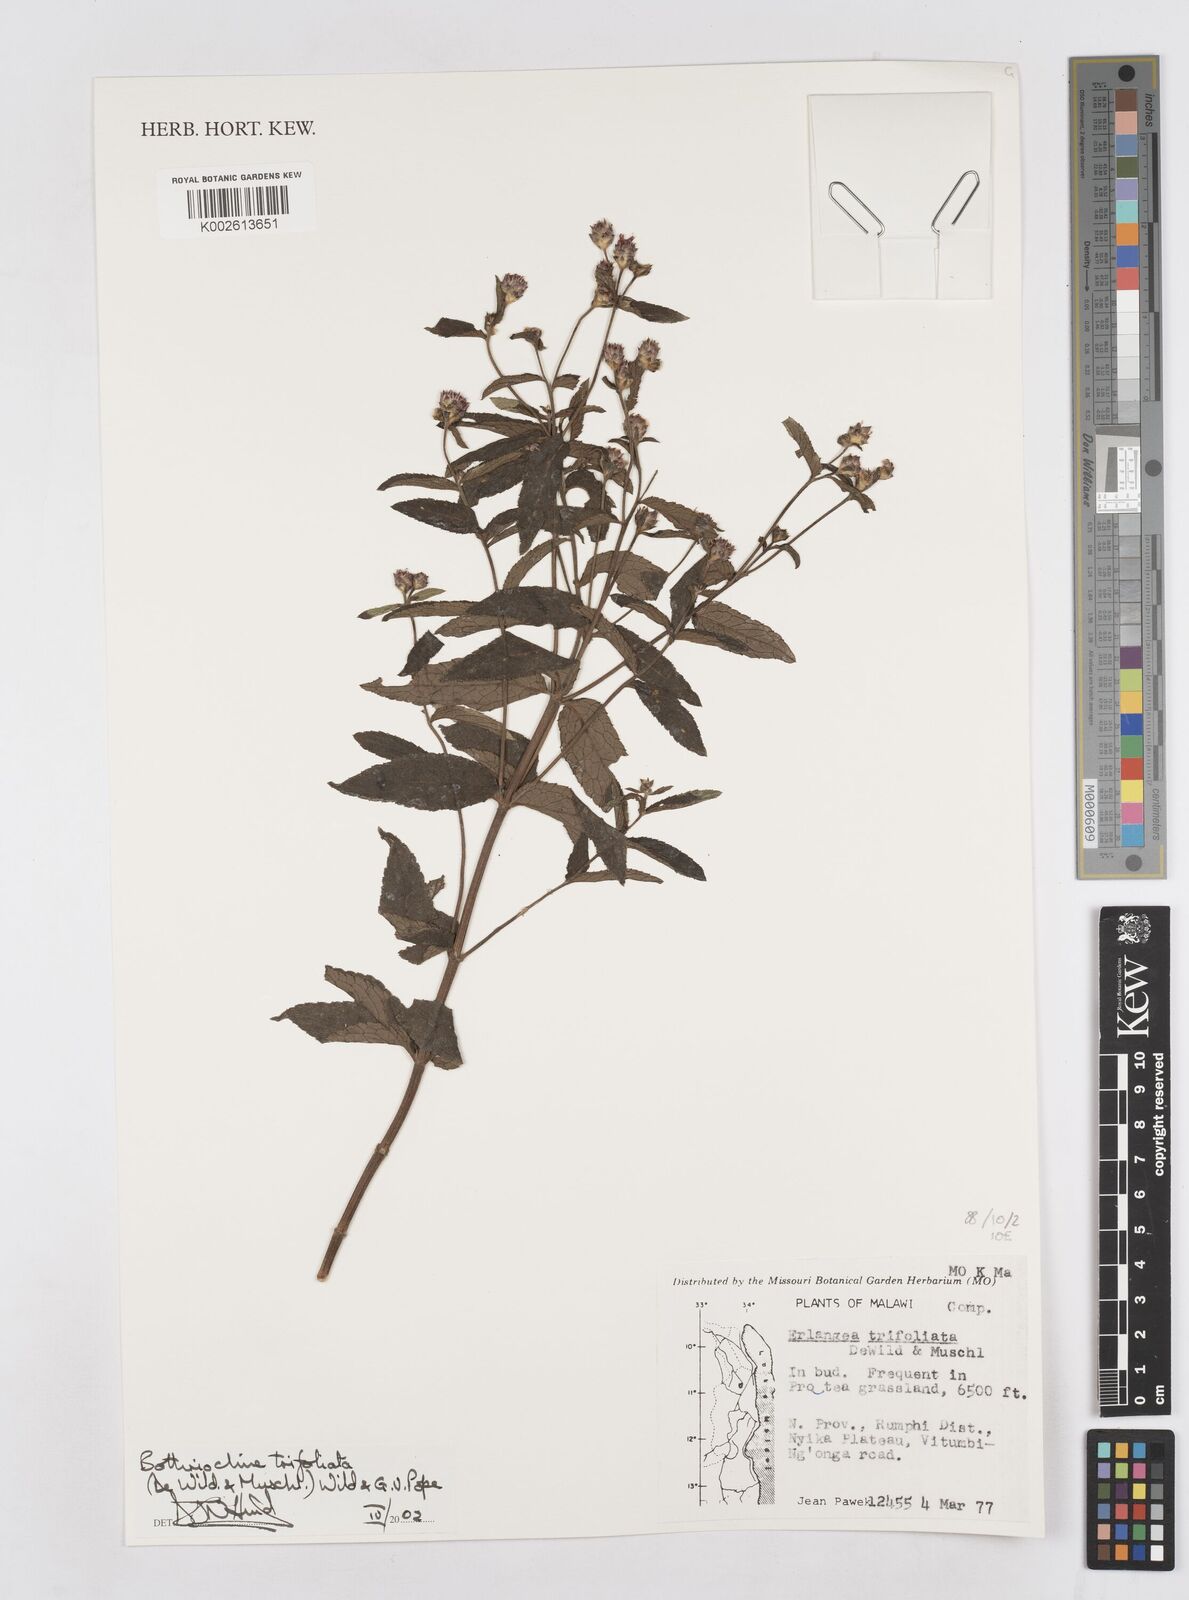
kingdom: Plantae
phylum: Tracheophyta
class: Magnoliopsida
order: Asterales
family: Asteraceae
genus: Bothriocline
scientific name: Bothriocline trifoliata
